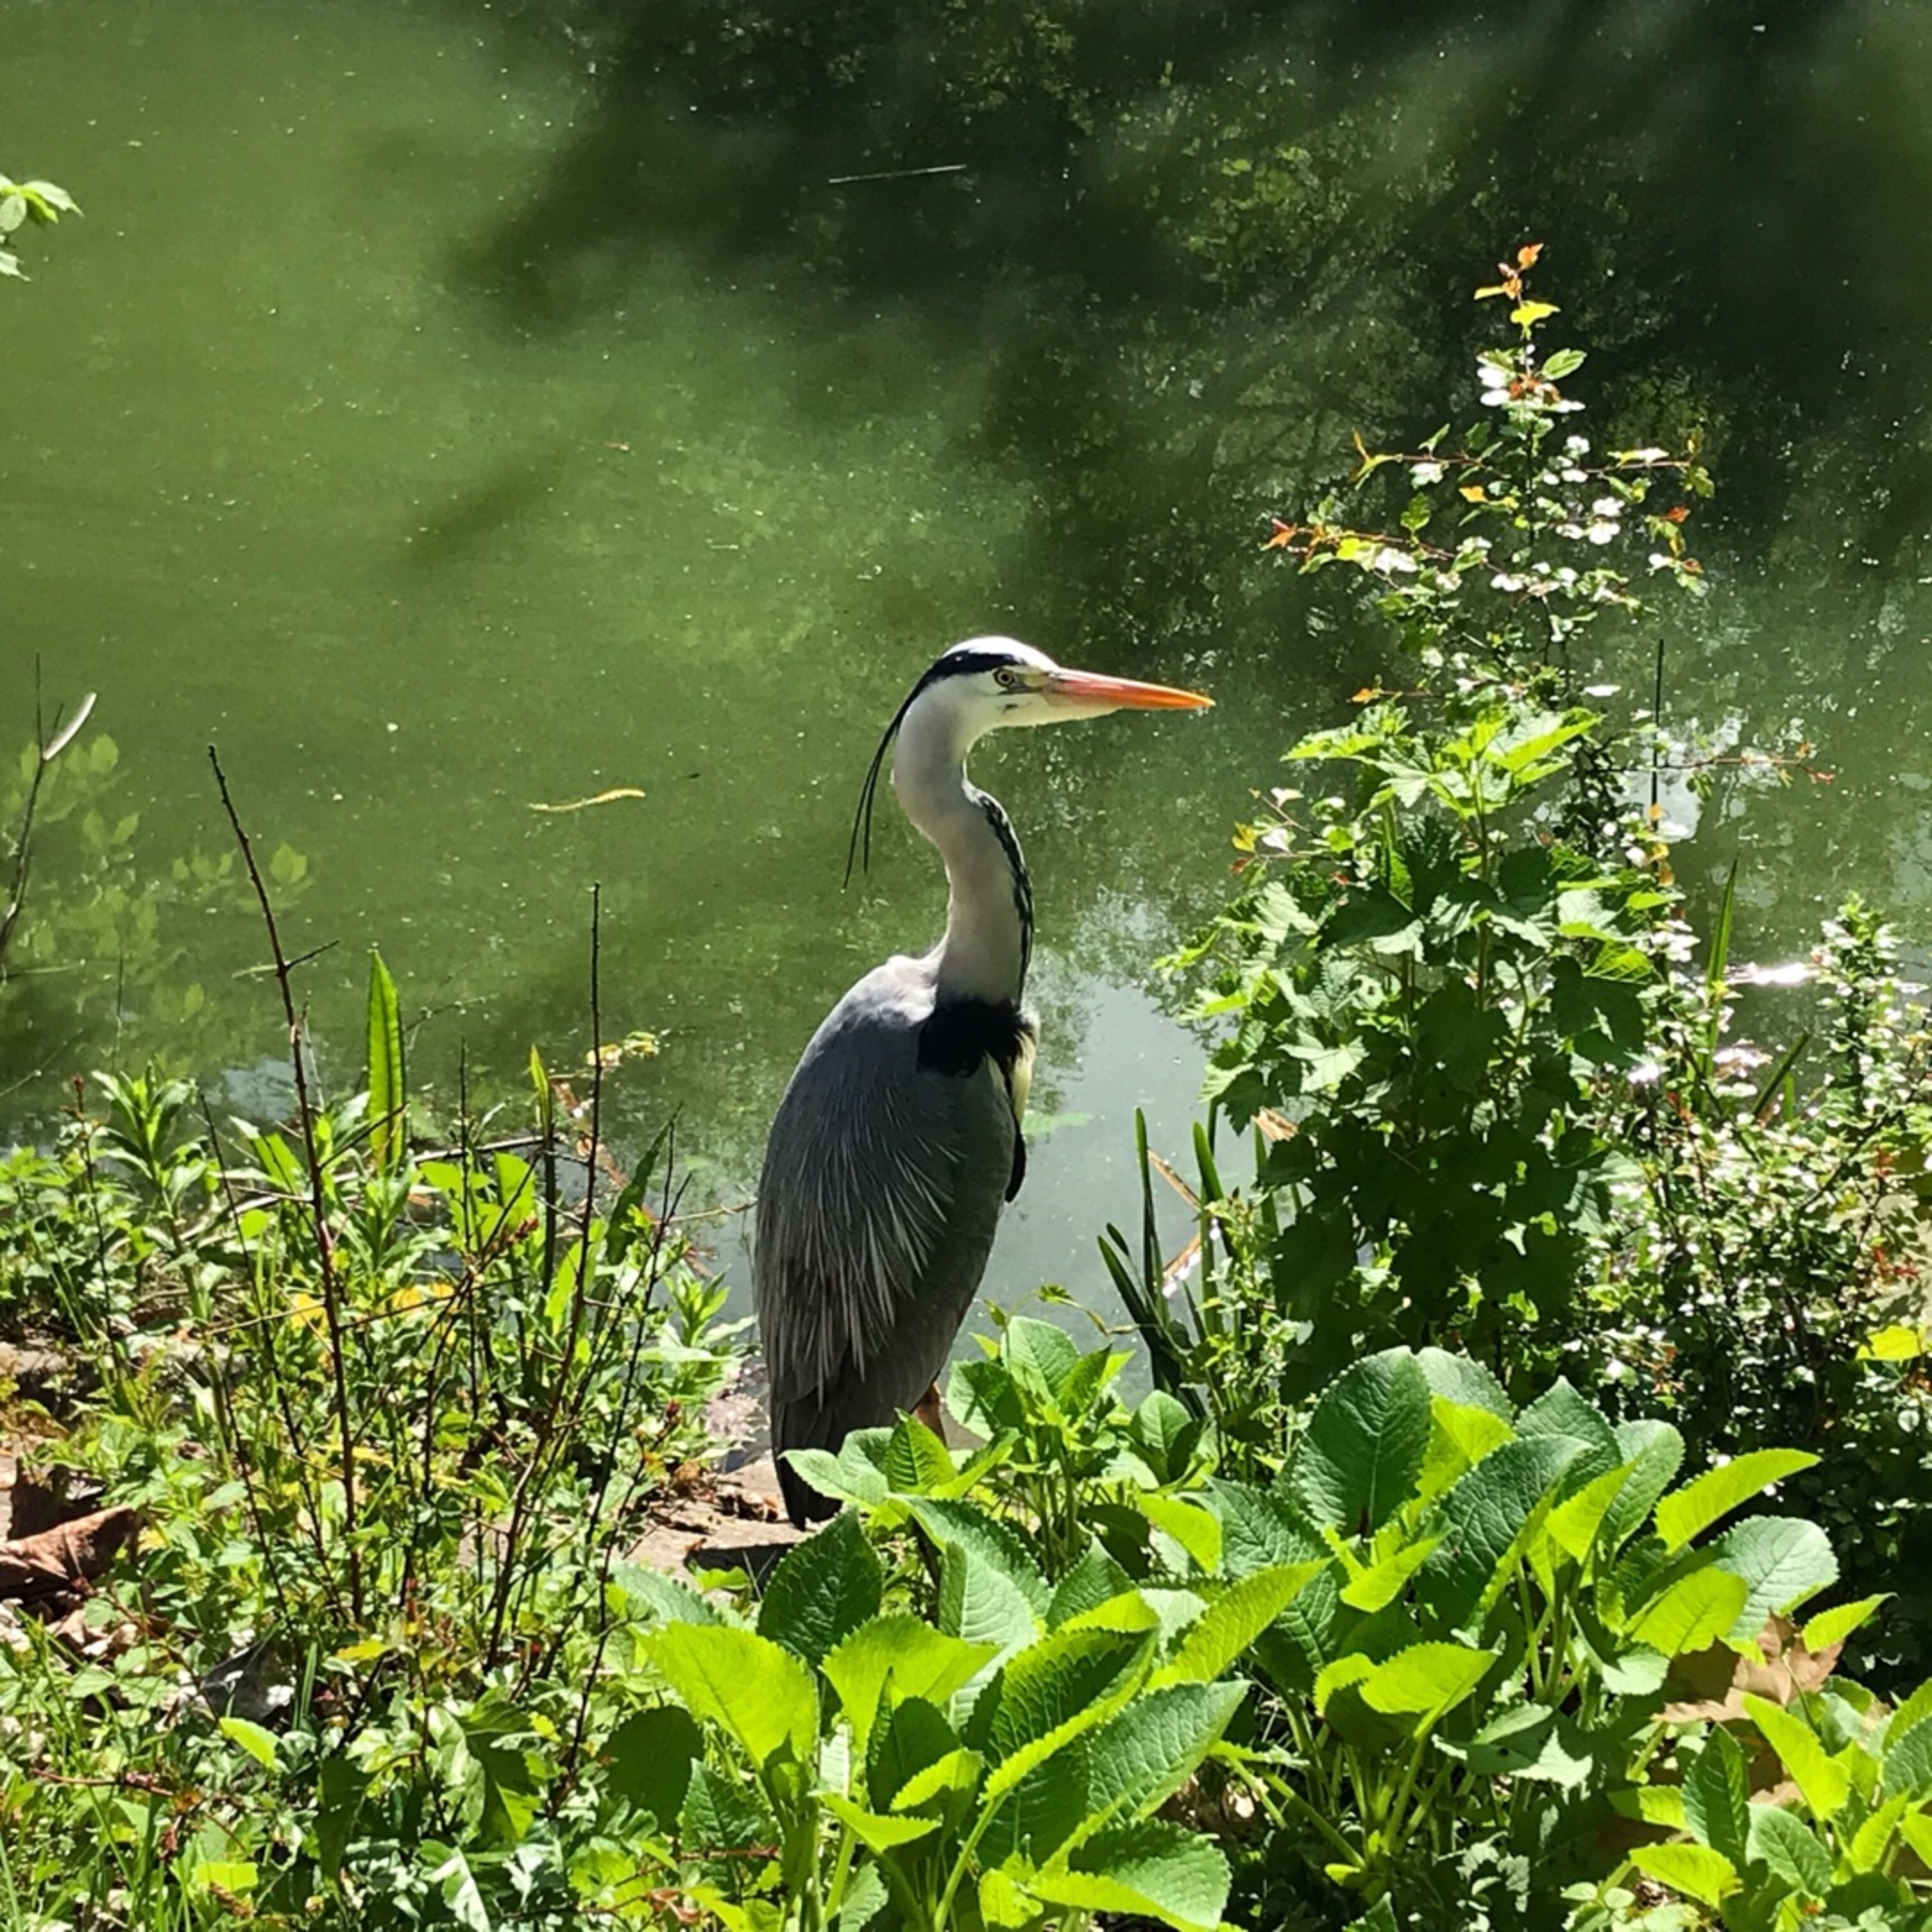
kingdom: Animalia
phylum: Chordata
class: Aves
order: Pelecaniformes
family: Ardeidae
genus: Ardea
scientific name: Ardea cinerea
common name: Fiskehejre
